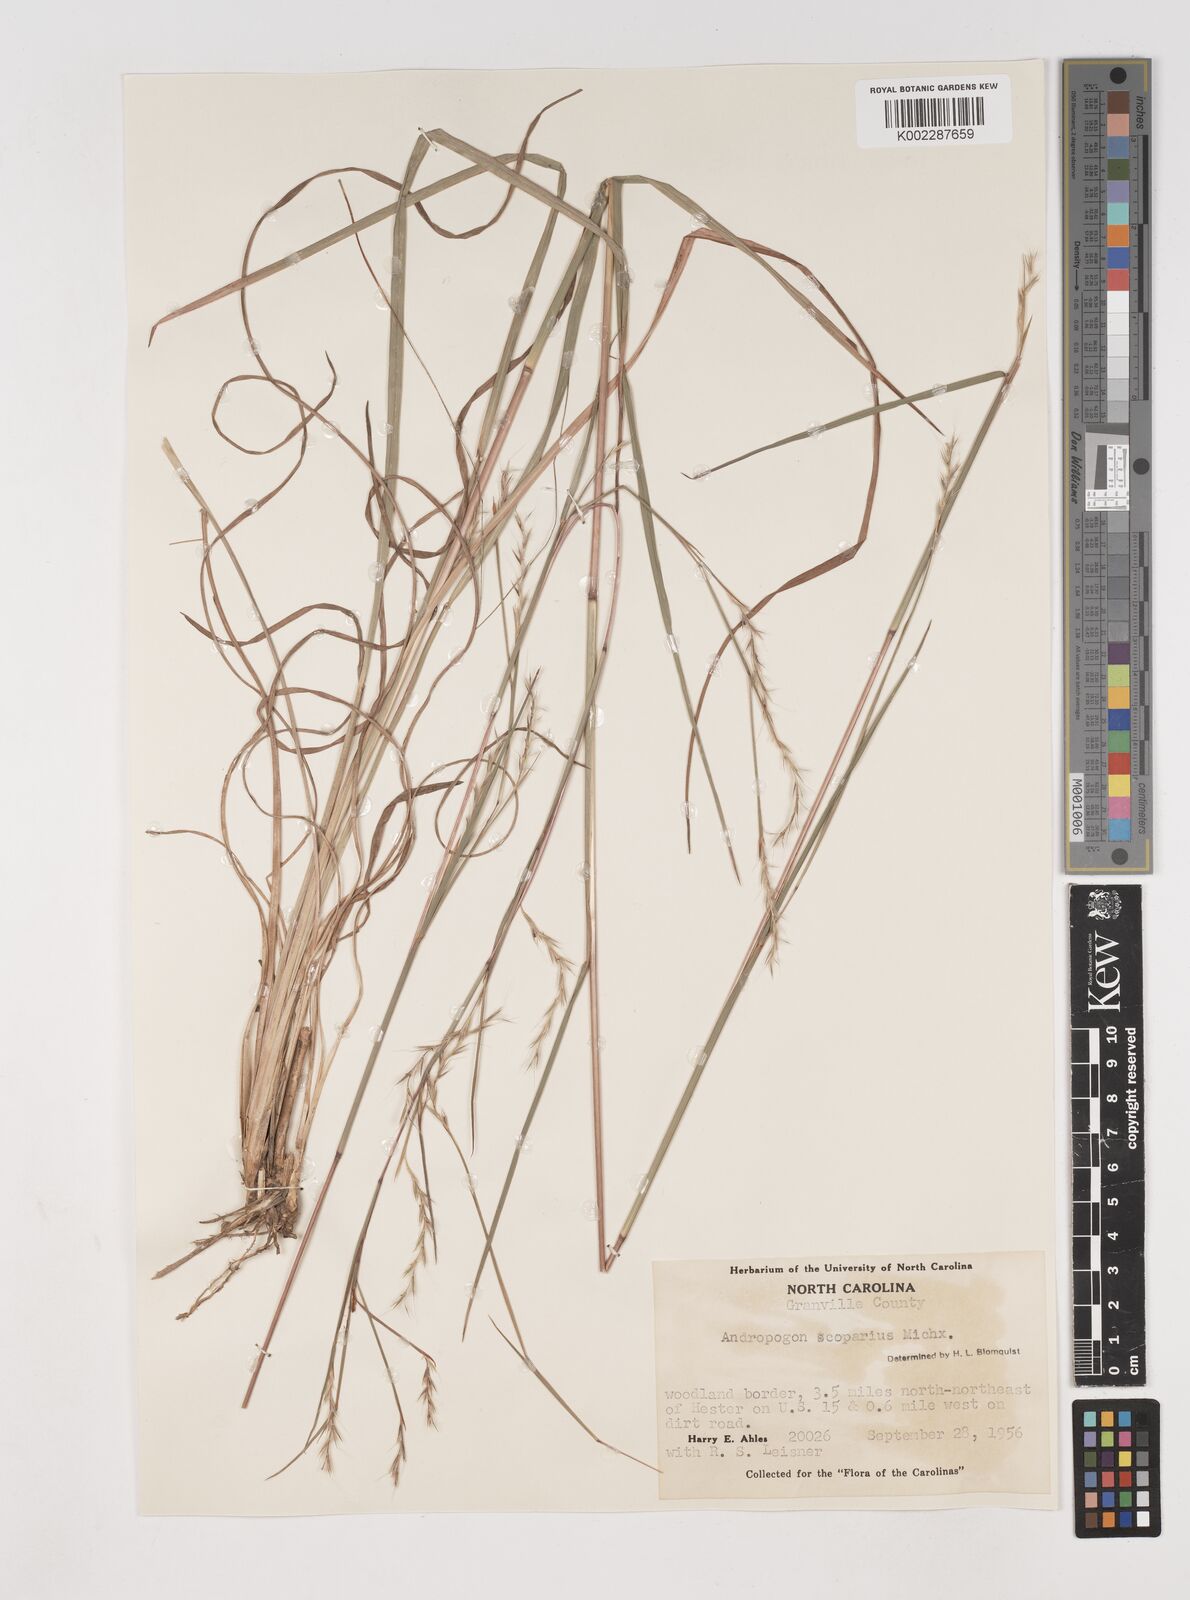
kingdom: Plantae
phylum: Tracheophyta
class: Liliopsida
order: Poales
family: Poaceae
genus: Schizachyrium
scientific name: Schizachyrium scoparium
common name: Little bluestem
